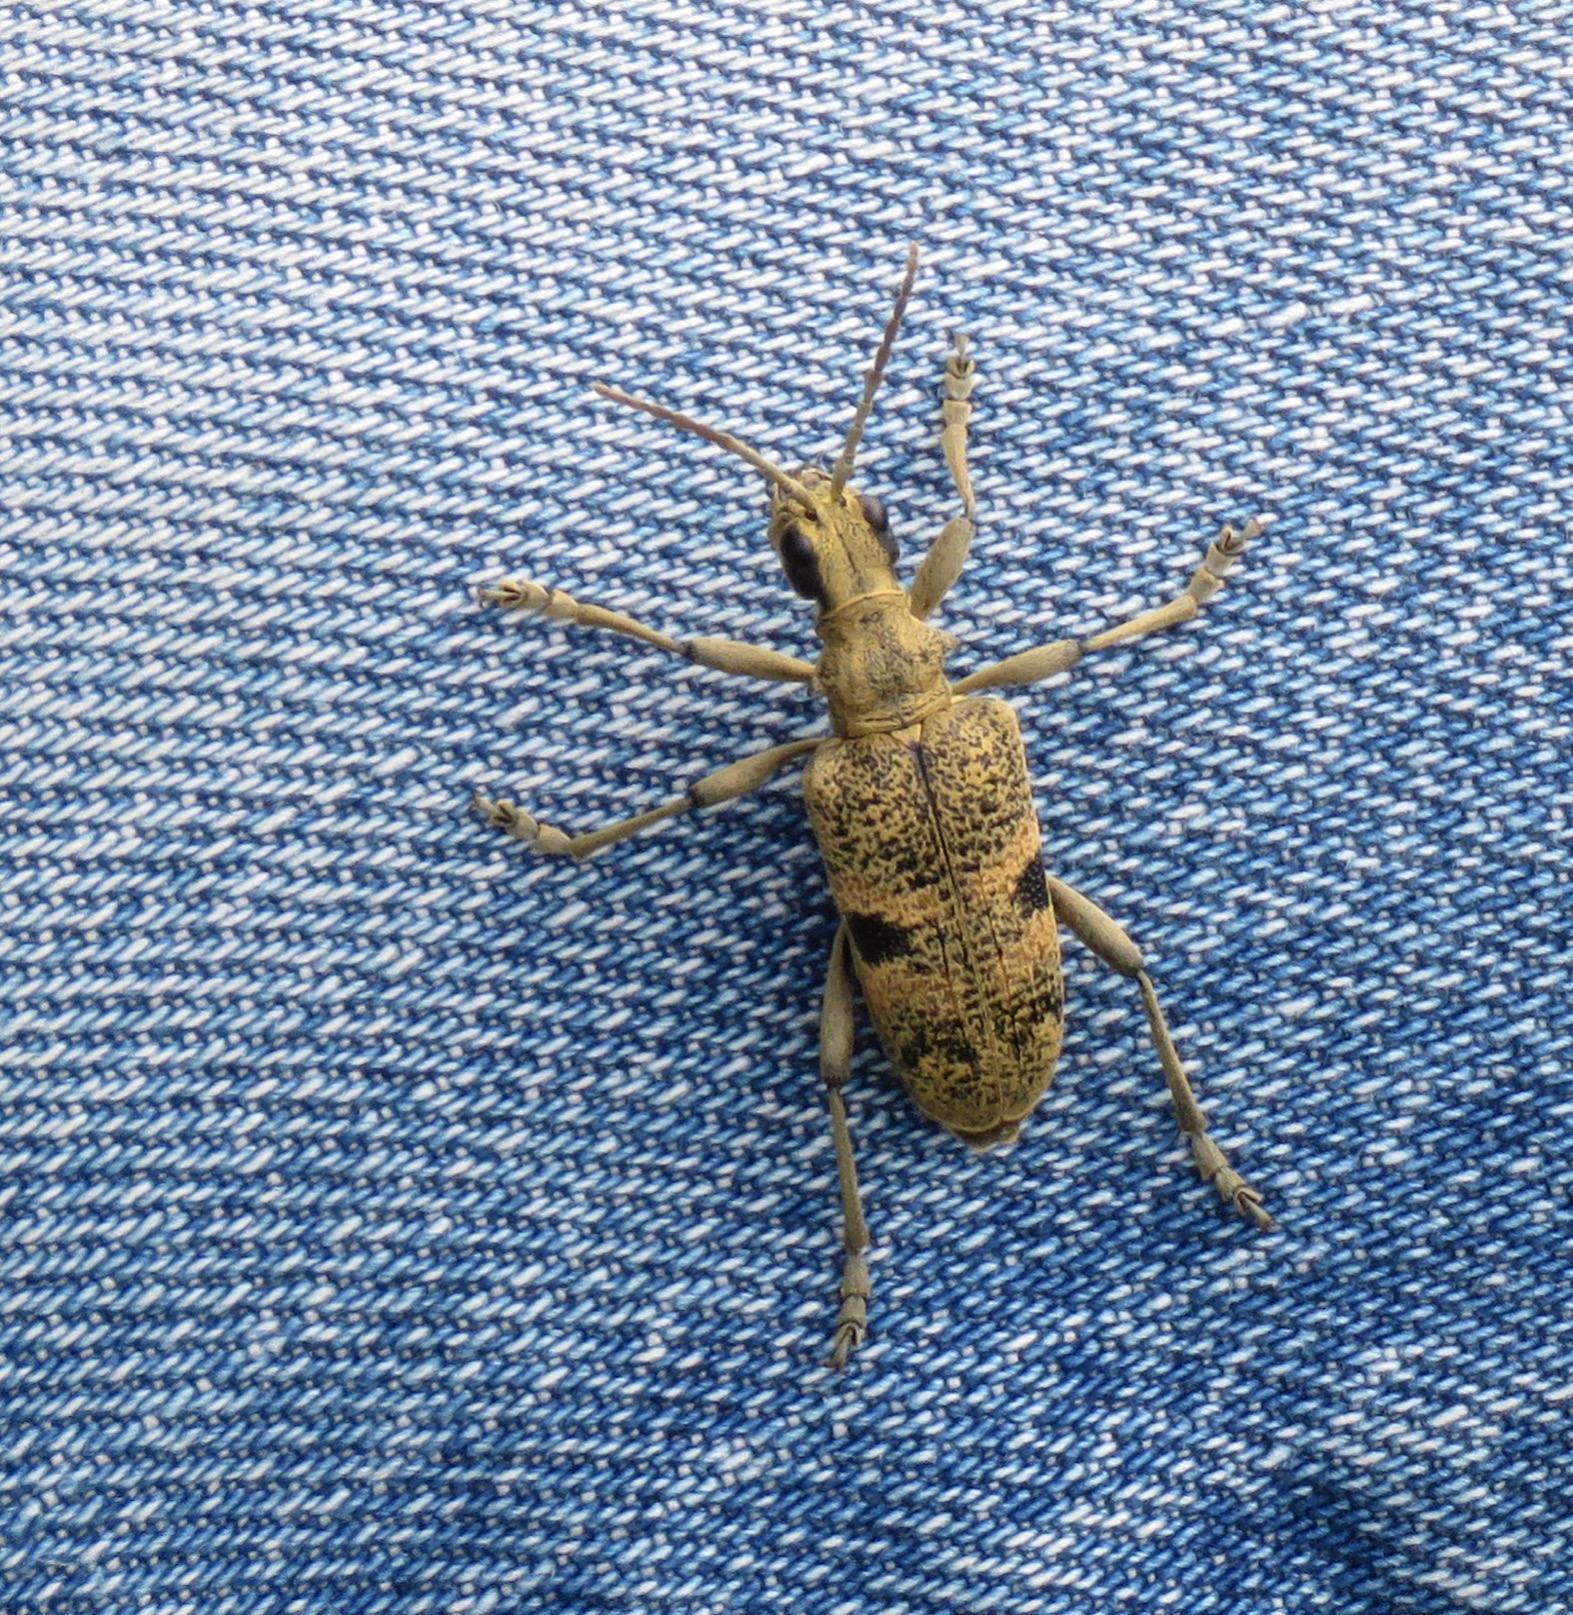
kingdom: Animalia
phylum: Arthropoda
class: Insecta
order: Coleoptera
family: Cerambycidae
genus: Rhagium
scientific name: Rhagium mordax
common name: Blankplettet tandbuk
